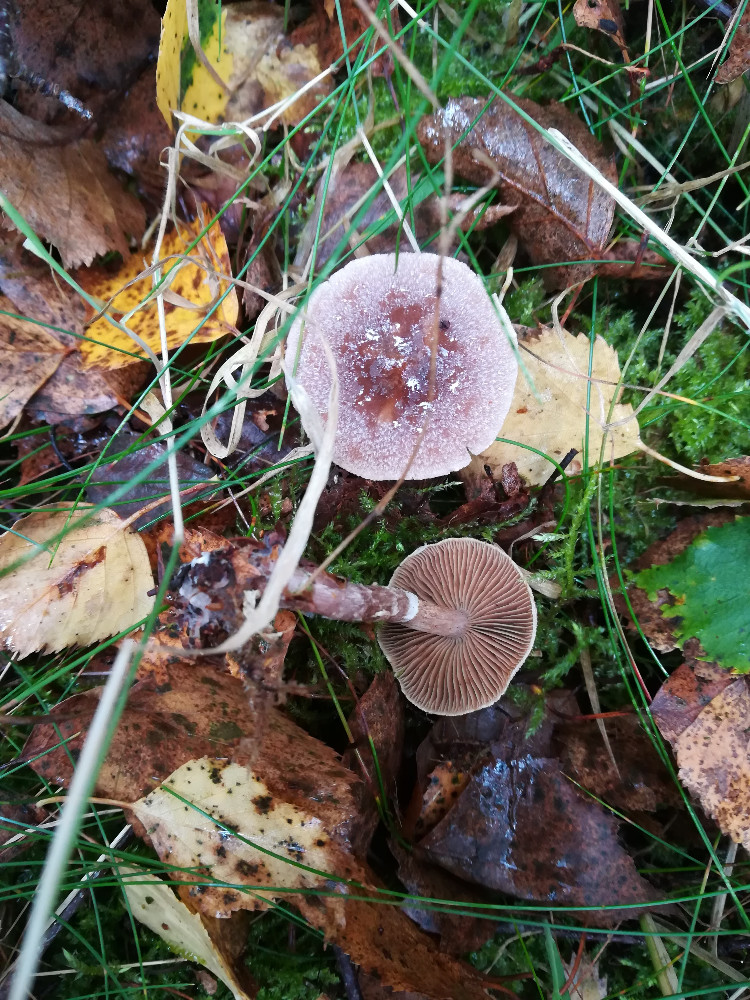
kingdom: Fungi
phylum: Basidiomycota
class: Agaricomycetes
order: Agaricales
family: Cortinariaceae
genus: Cortinarius
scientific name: Cortinarius
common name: pelargonie-slørhat
